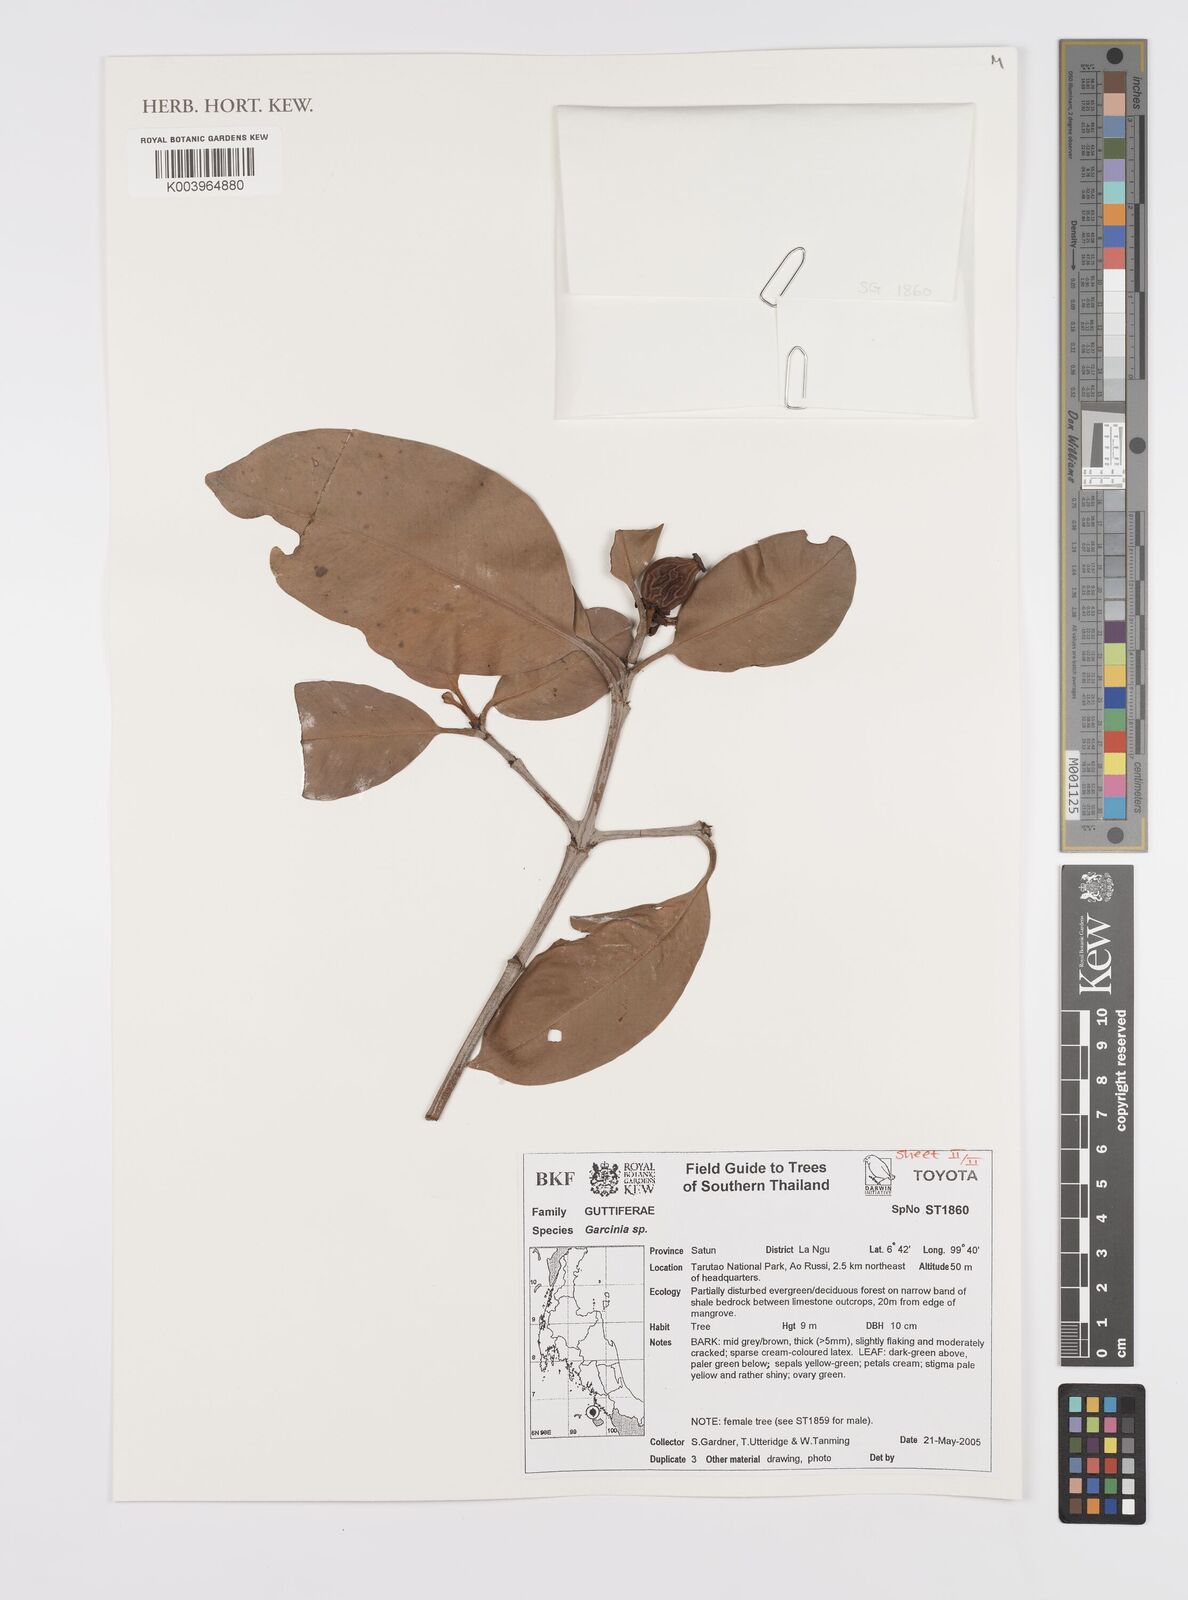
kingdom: Plantae
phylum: Tracheophyta
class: Magnoliopsida
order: Malpighiales
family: Clusiaceae
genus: Garcinia
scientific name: Garcinia
